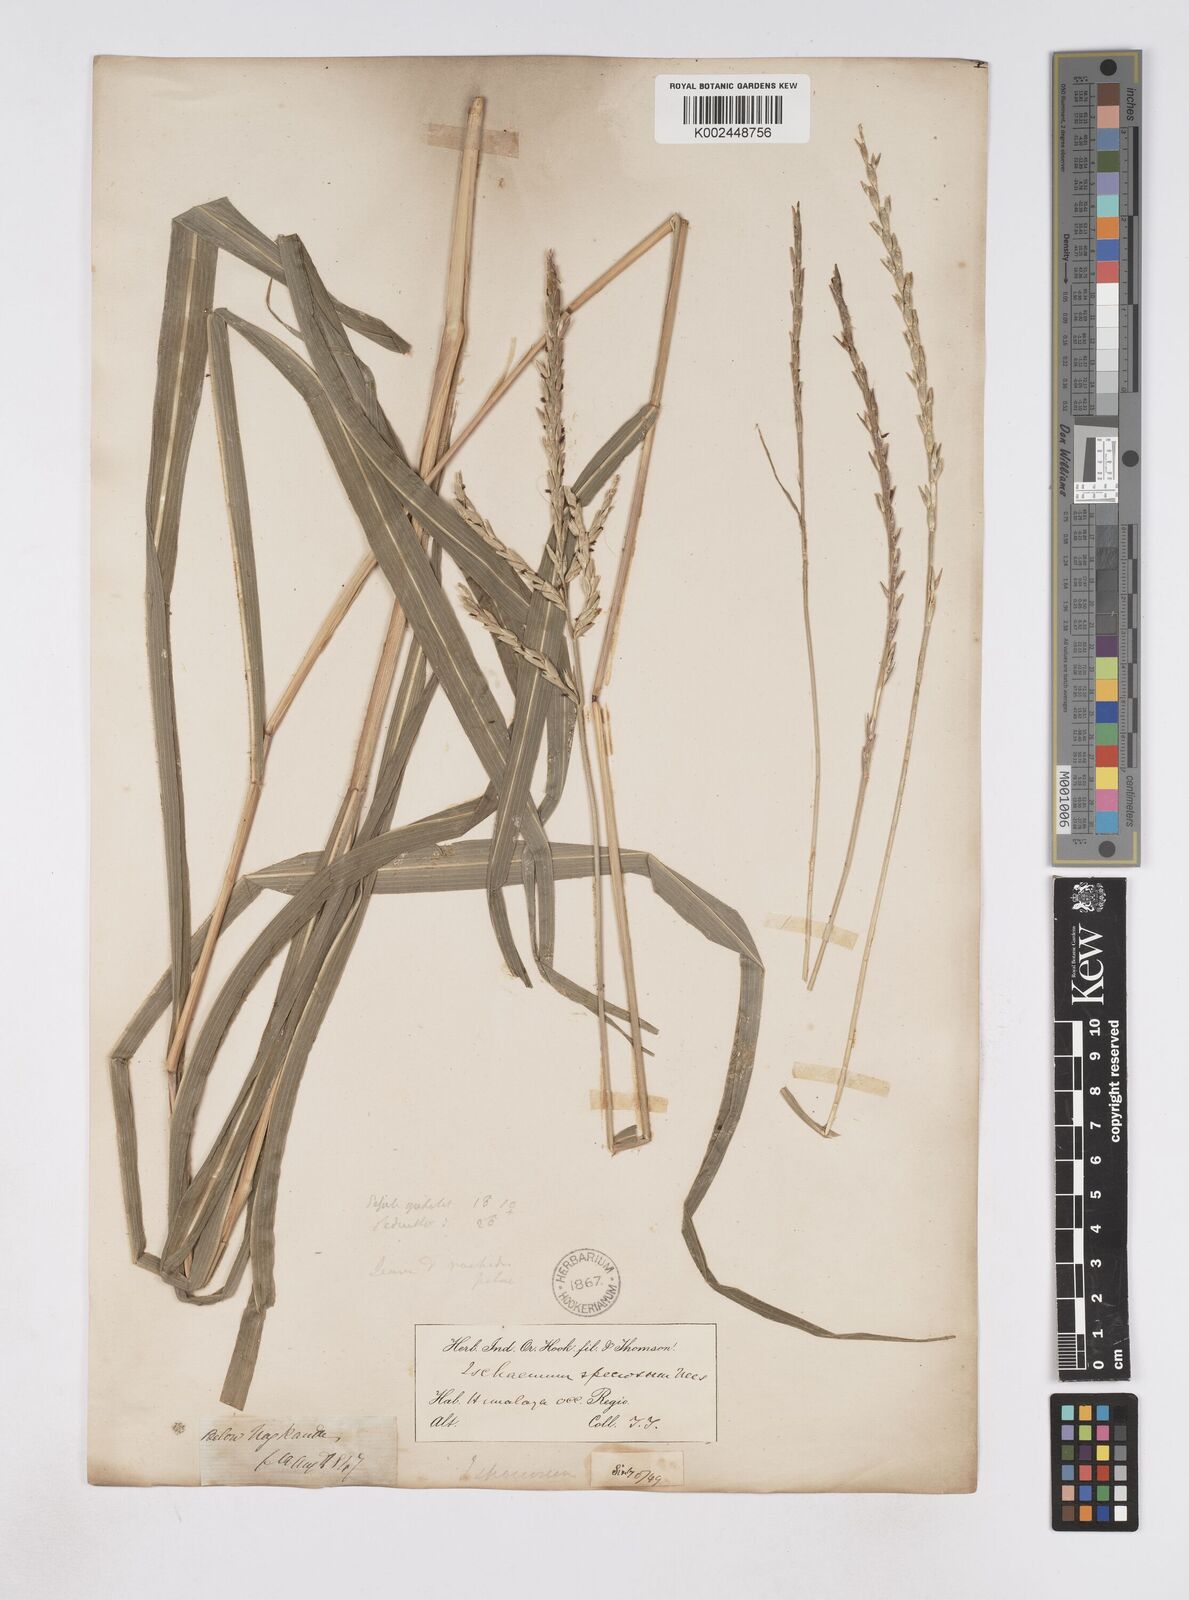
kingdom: Plantae
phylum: Tracheophyta
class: Liliopsida
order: Poales
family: Poaceae
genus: Phacelurus
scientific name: Phacelurus speciosus
